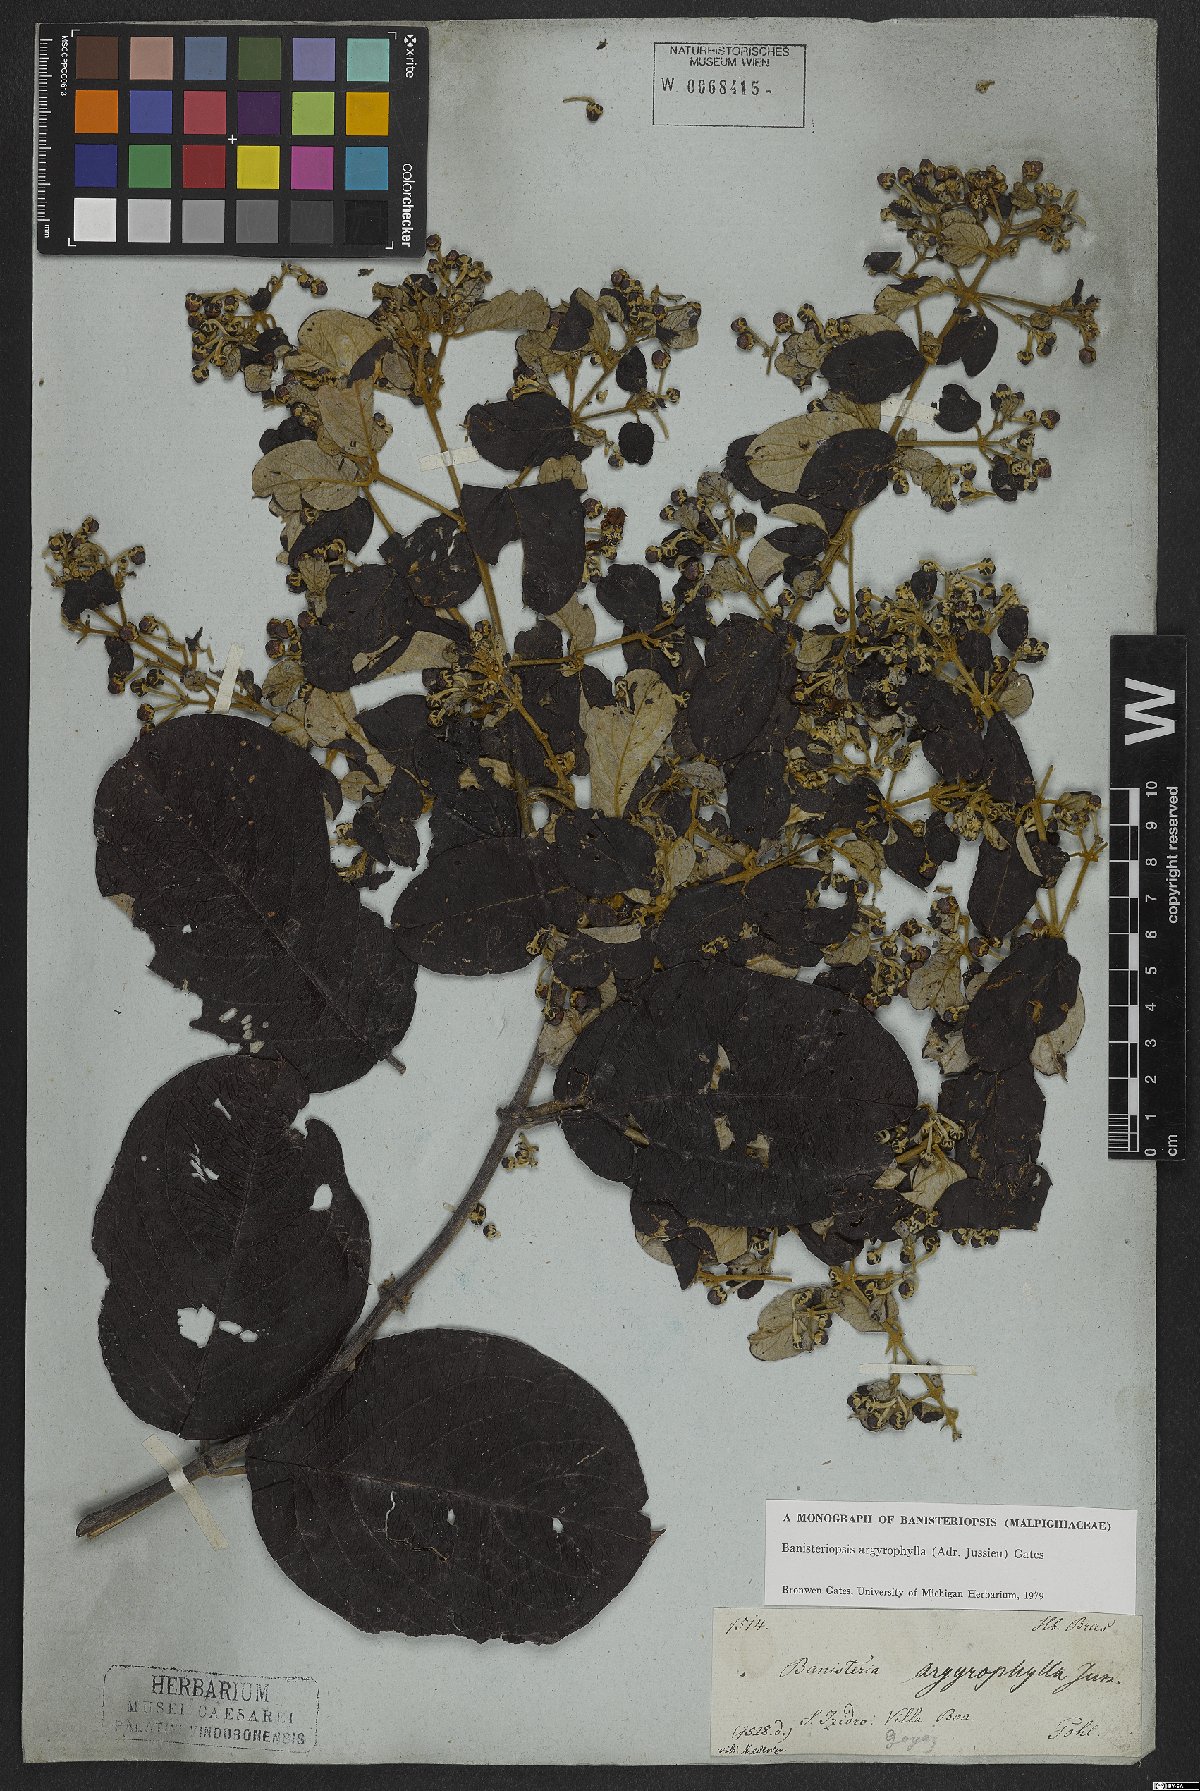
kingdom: Plantae
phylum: Tracheophyta
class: Magnoliopsida
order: Malpighiales
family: Malpighiaceae
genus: Banisteriopsis
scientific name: Banisteriopsis argyrophylla
